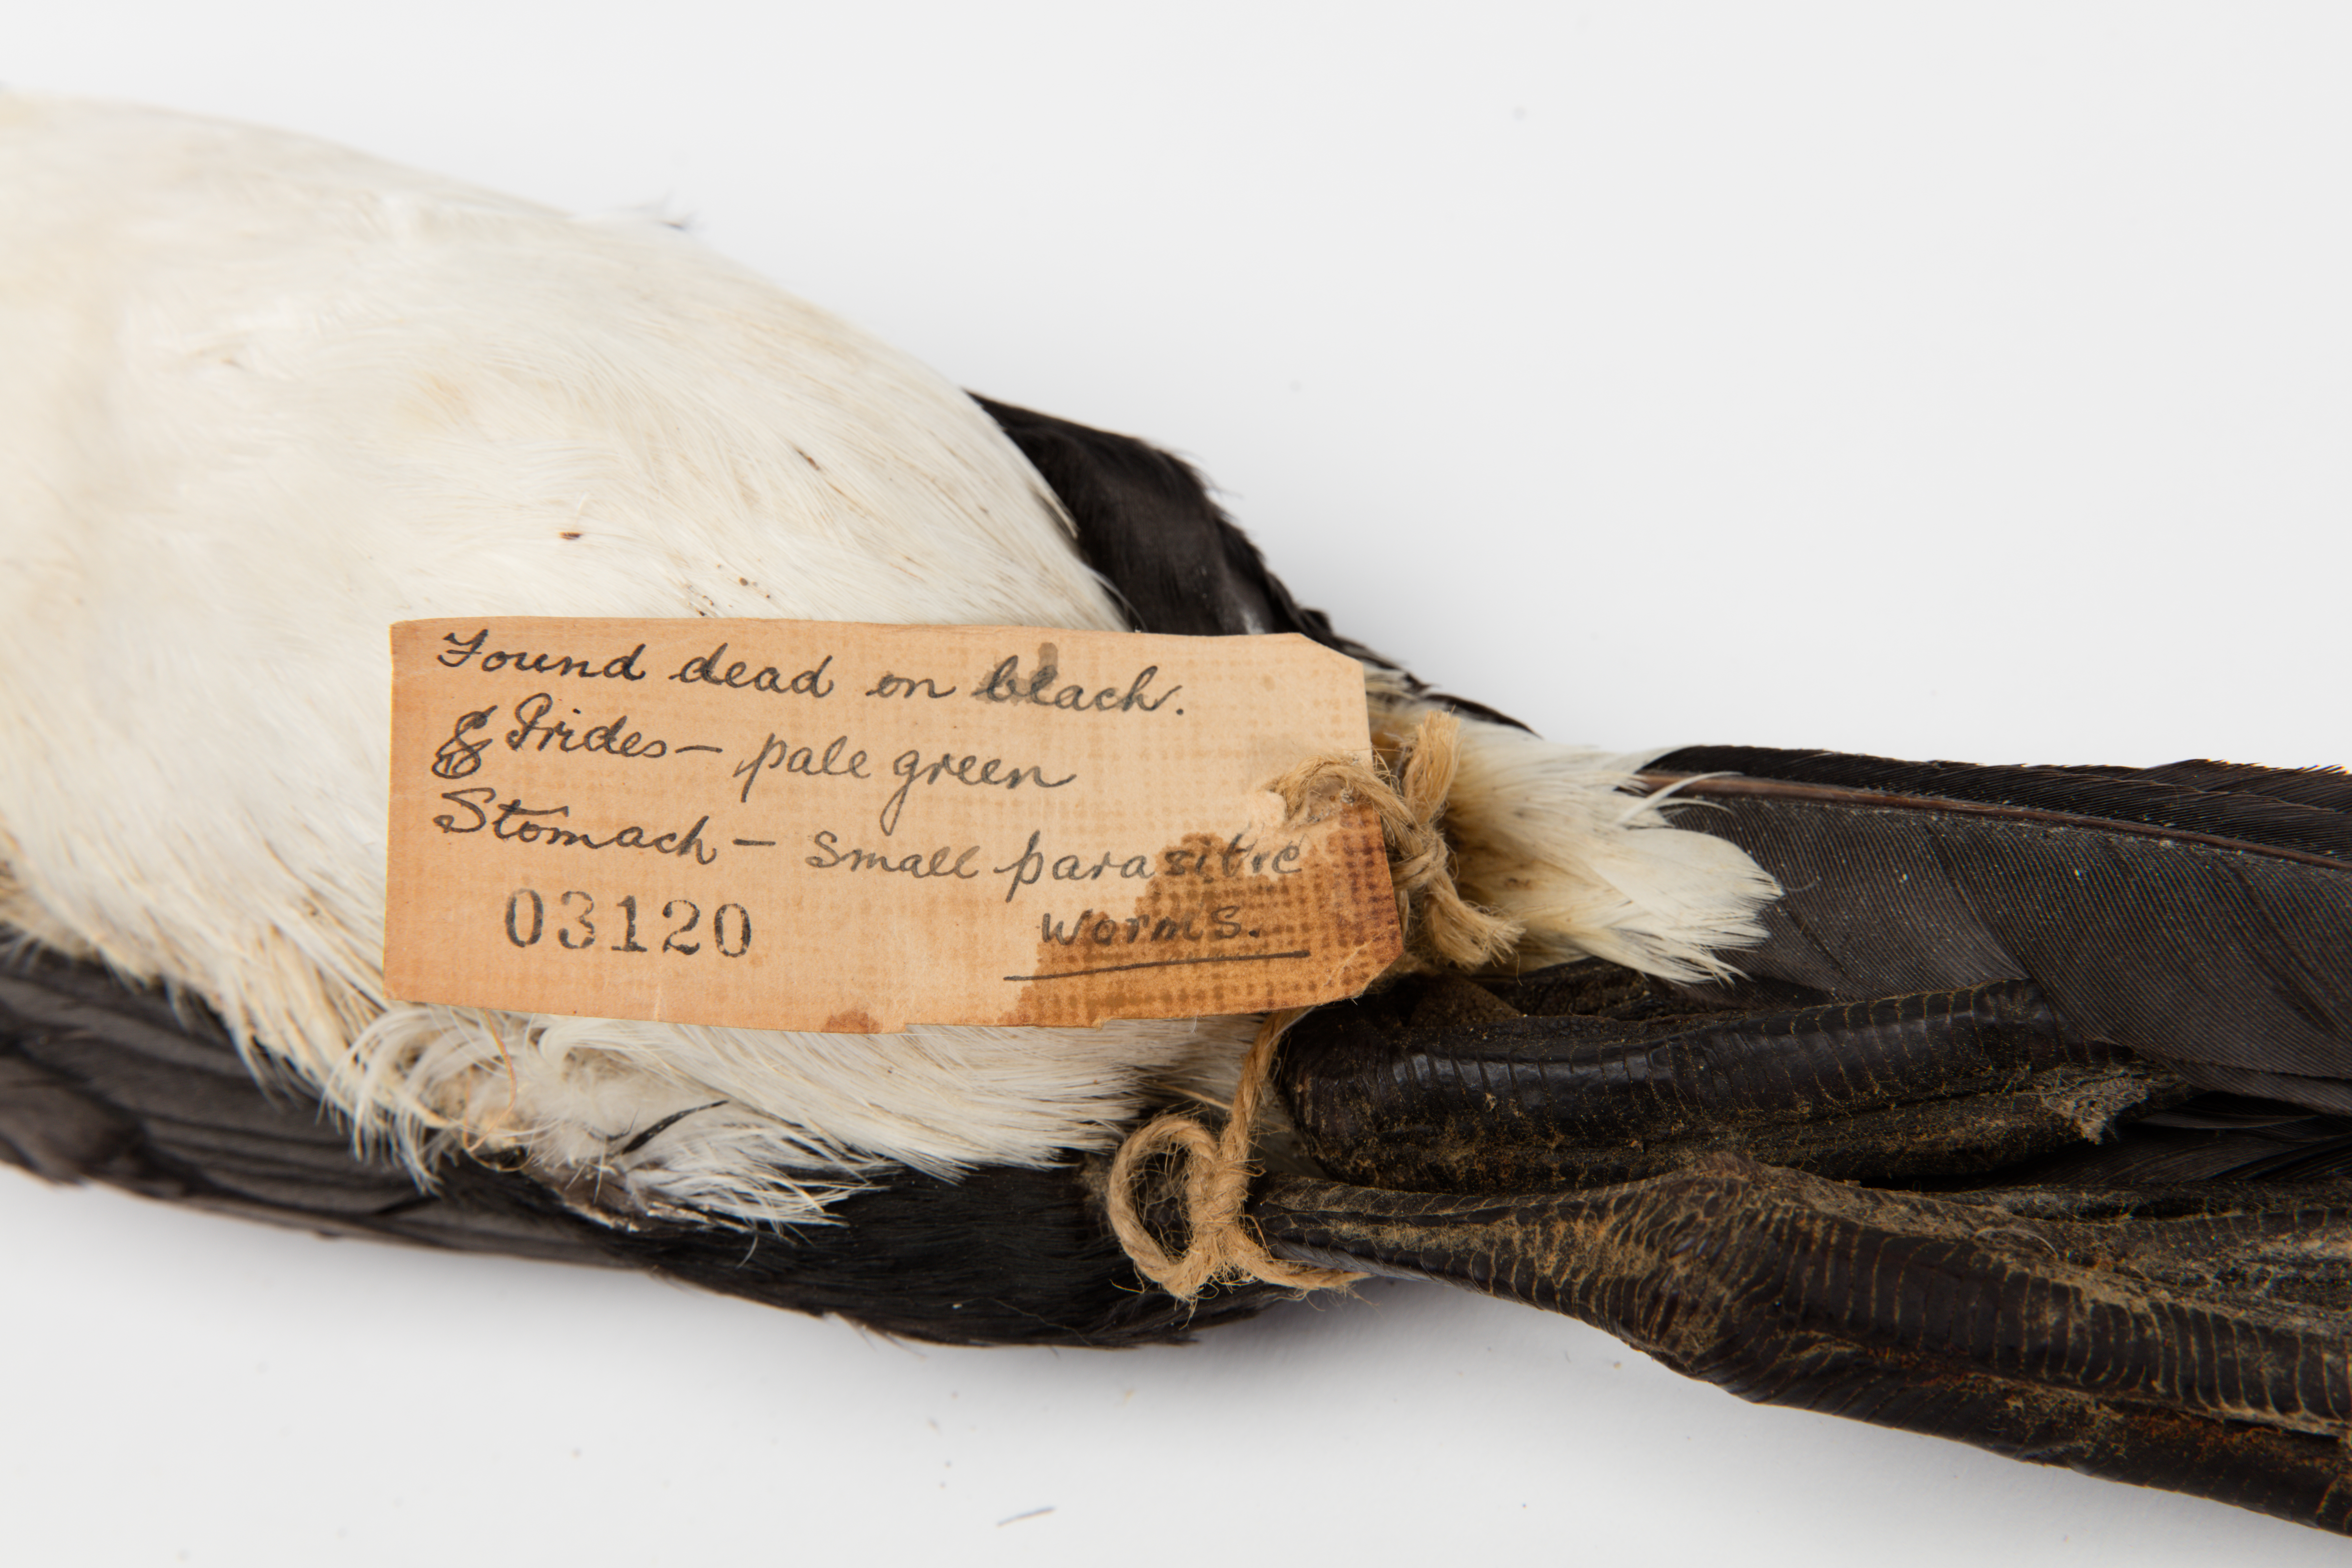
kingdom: Animalia
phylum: Chordata
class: Aves
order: Suliformes
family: Phalacrocoracidae
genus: Phalacrocorax
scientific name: Phalacrocorax varius
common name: Pied cormorant
